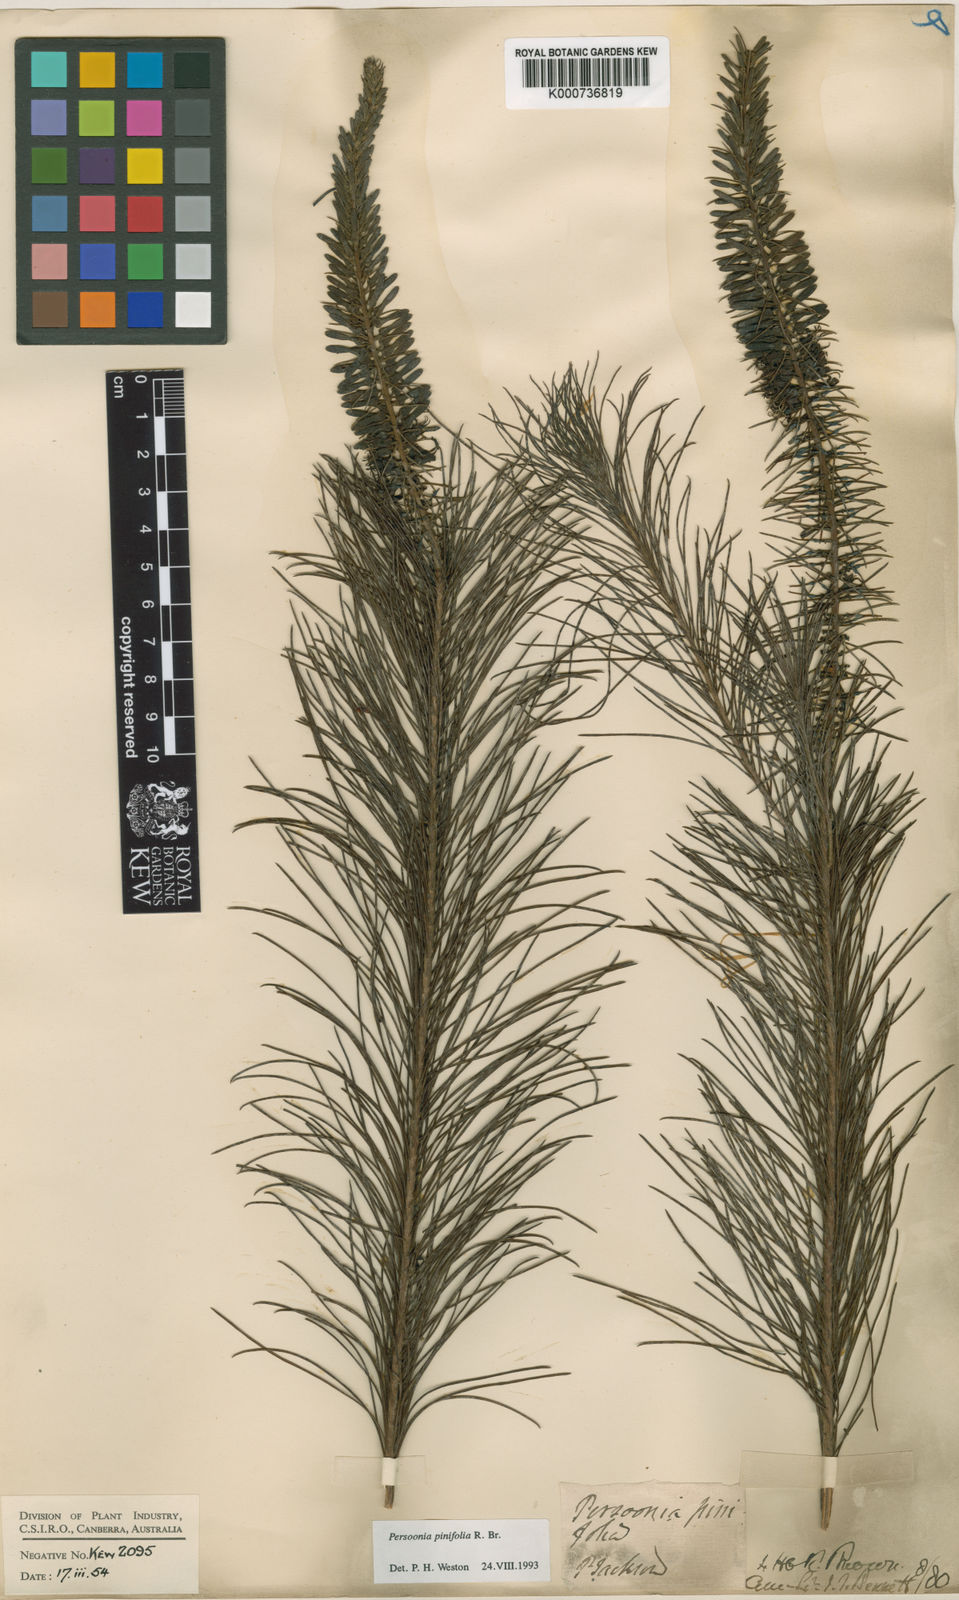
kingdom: Plantae
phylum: Tracheophyta
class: Magnoliopsida
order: Proteales
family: Proteaceae
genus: Persoonia
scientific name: Persoonia pinifolia
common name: Pine-leaf geebung
